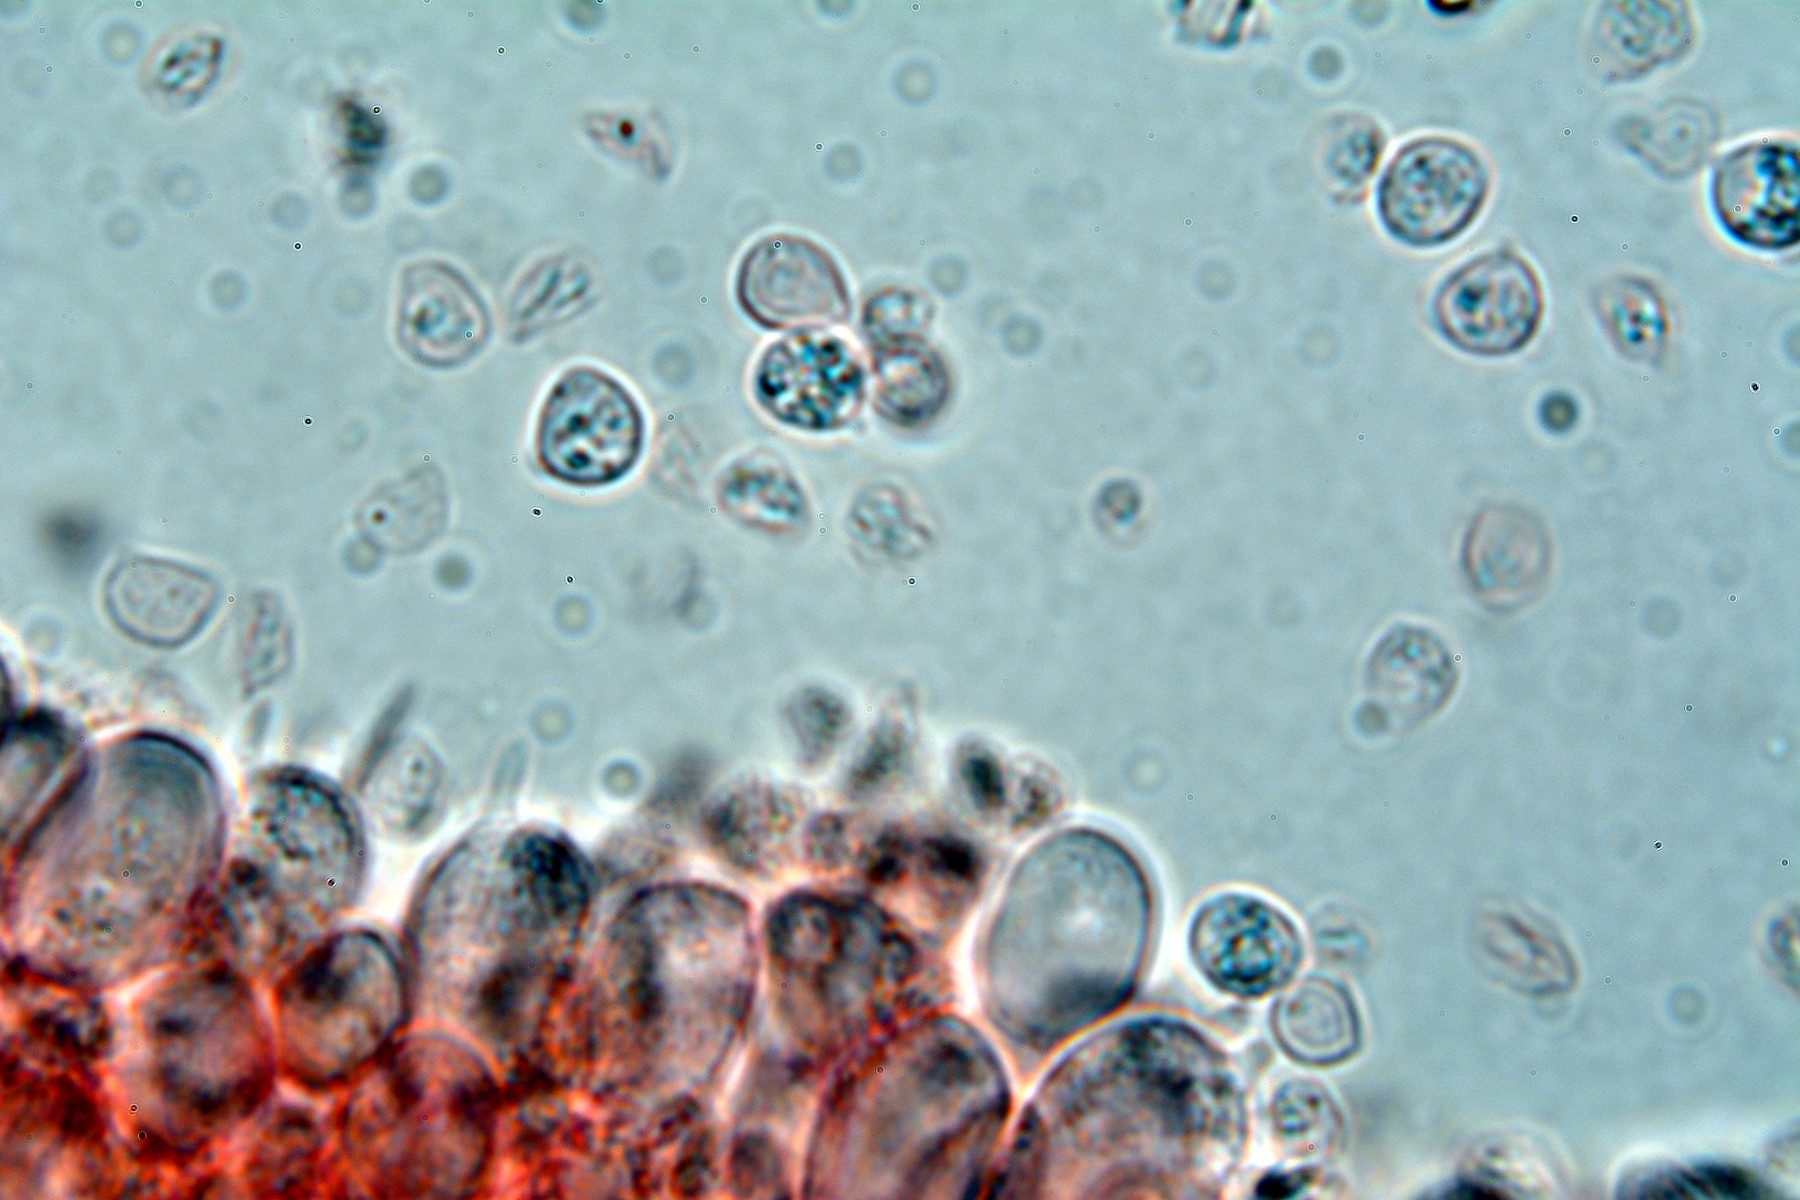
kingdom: Fungi
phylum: Basidiomycota
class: Agaricomycetes
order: Trechisporales
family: Hydnodontaceae
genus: Brevicellicium
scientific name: Brevicellicium olivascens
